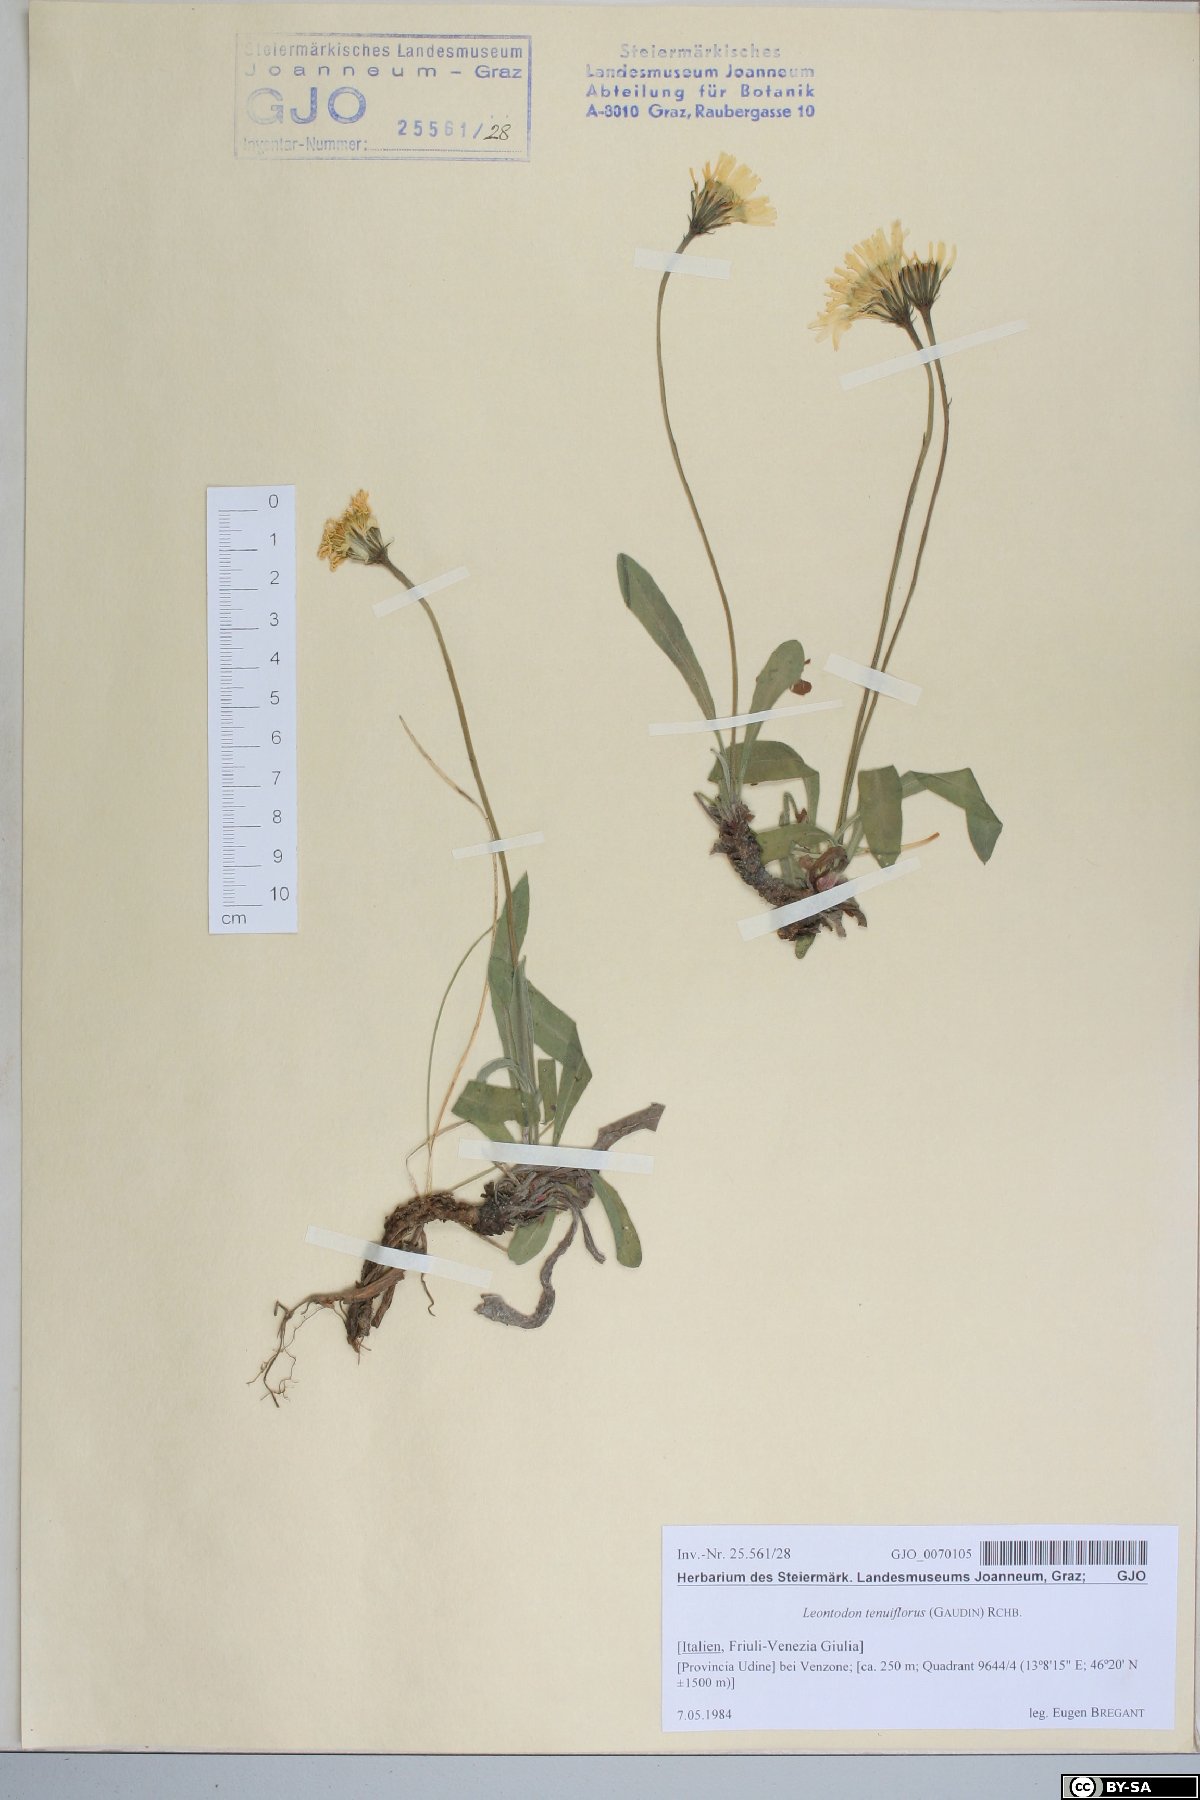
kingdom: Plantae
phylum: Tracheophyta
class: Magnoliopsida
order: Asterales
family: Asteraceae
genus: Leontodon
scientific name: Leontodon tenuiflorus
